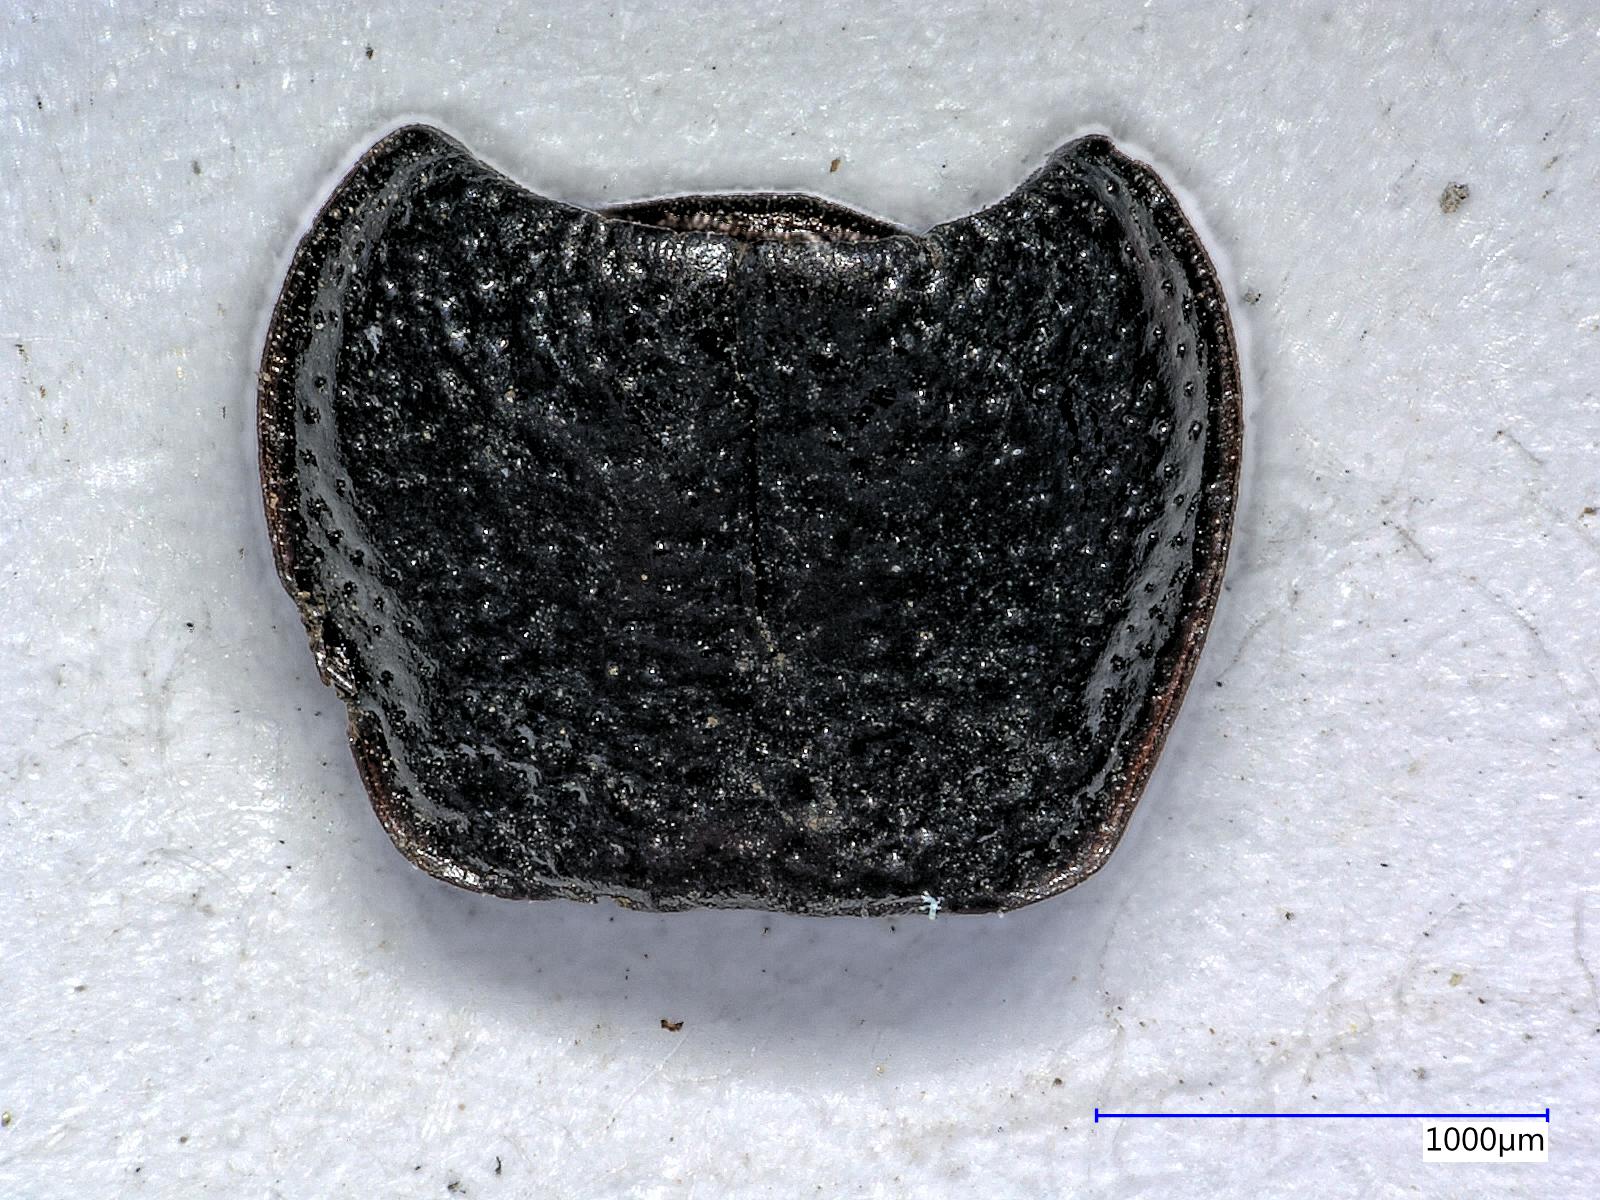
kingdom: Animalia
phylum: Arthropoda
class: Insecta
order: Coleoptera
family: Carabidae
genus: Dicheirus
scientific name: Dicheirus dilatatus
